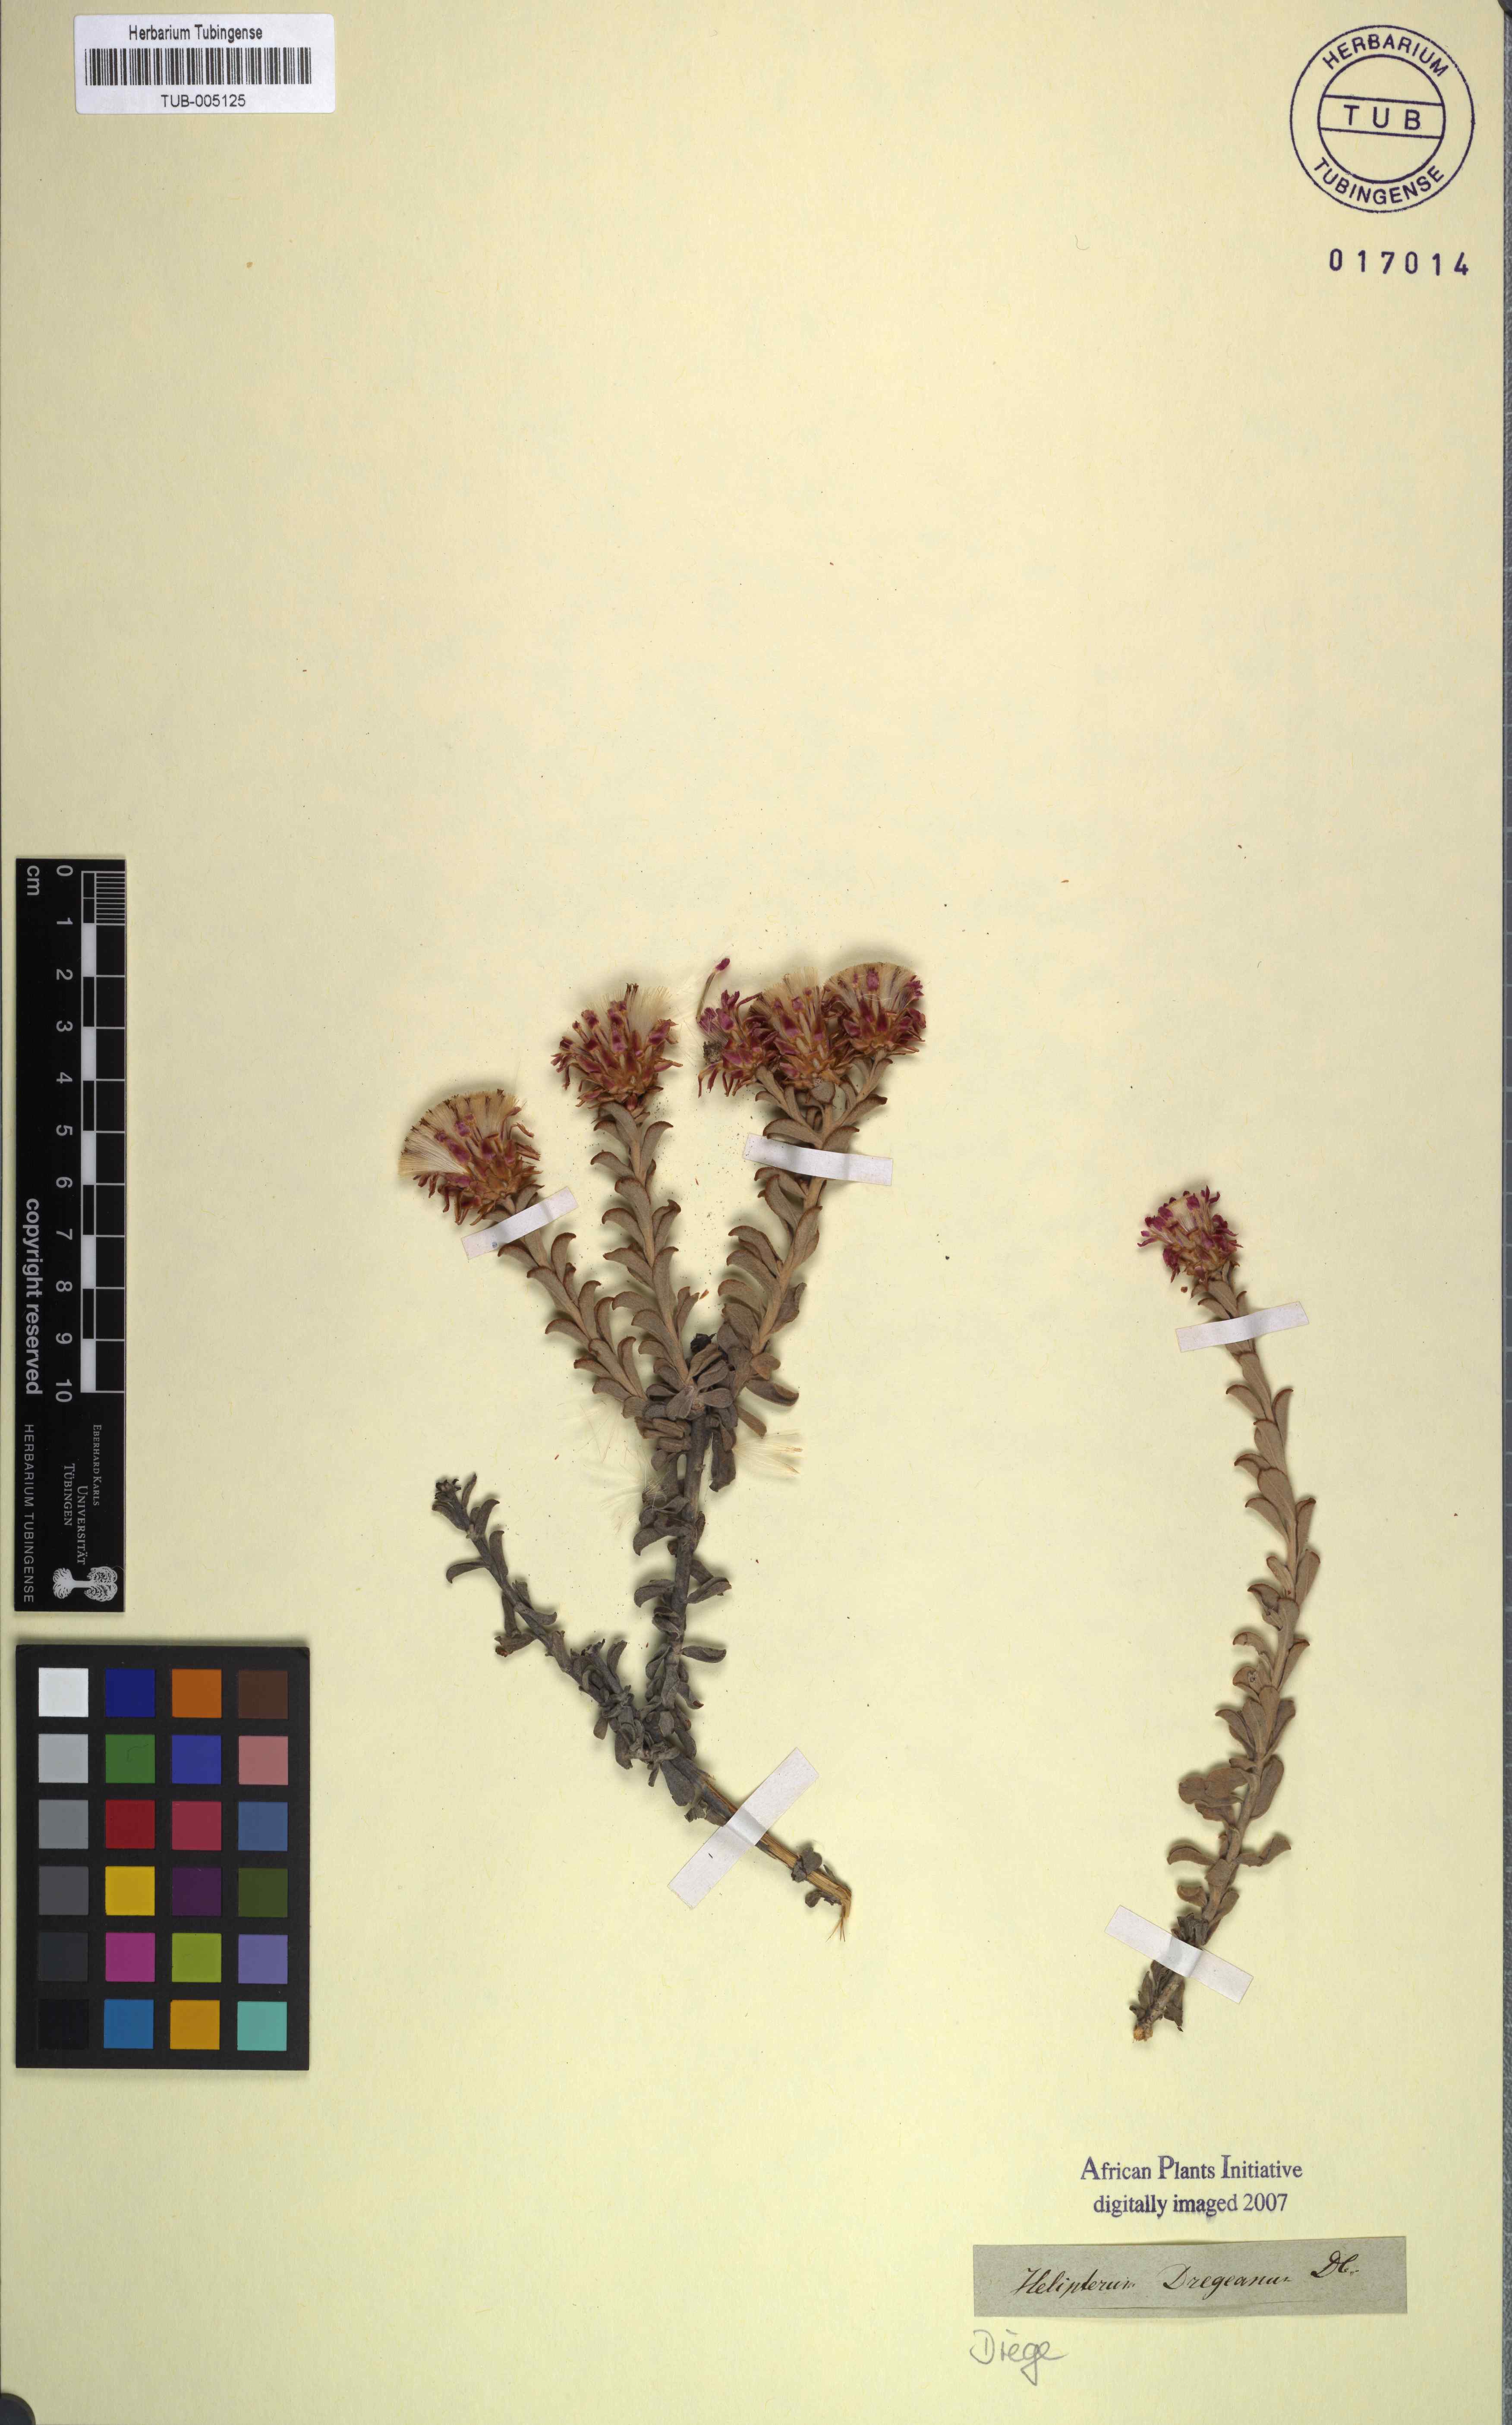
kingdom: Plantae
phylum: Tracheophyta
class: Magnoliopsida
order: Asterales
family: Asteraceae
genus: Syncarpha
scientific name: Syncarpha dregeana
